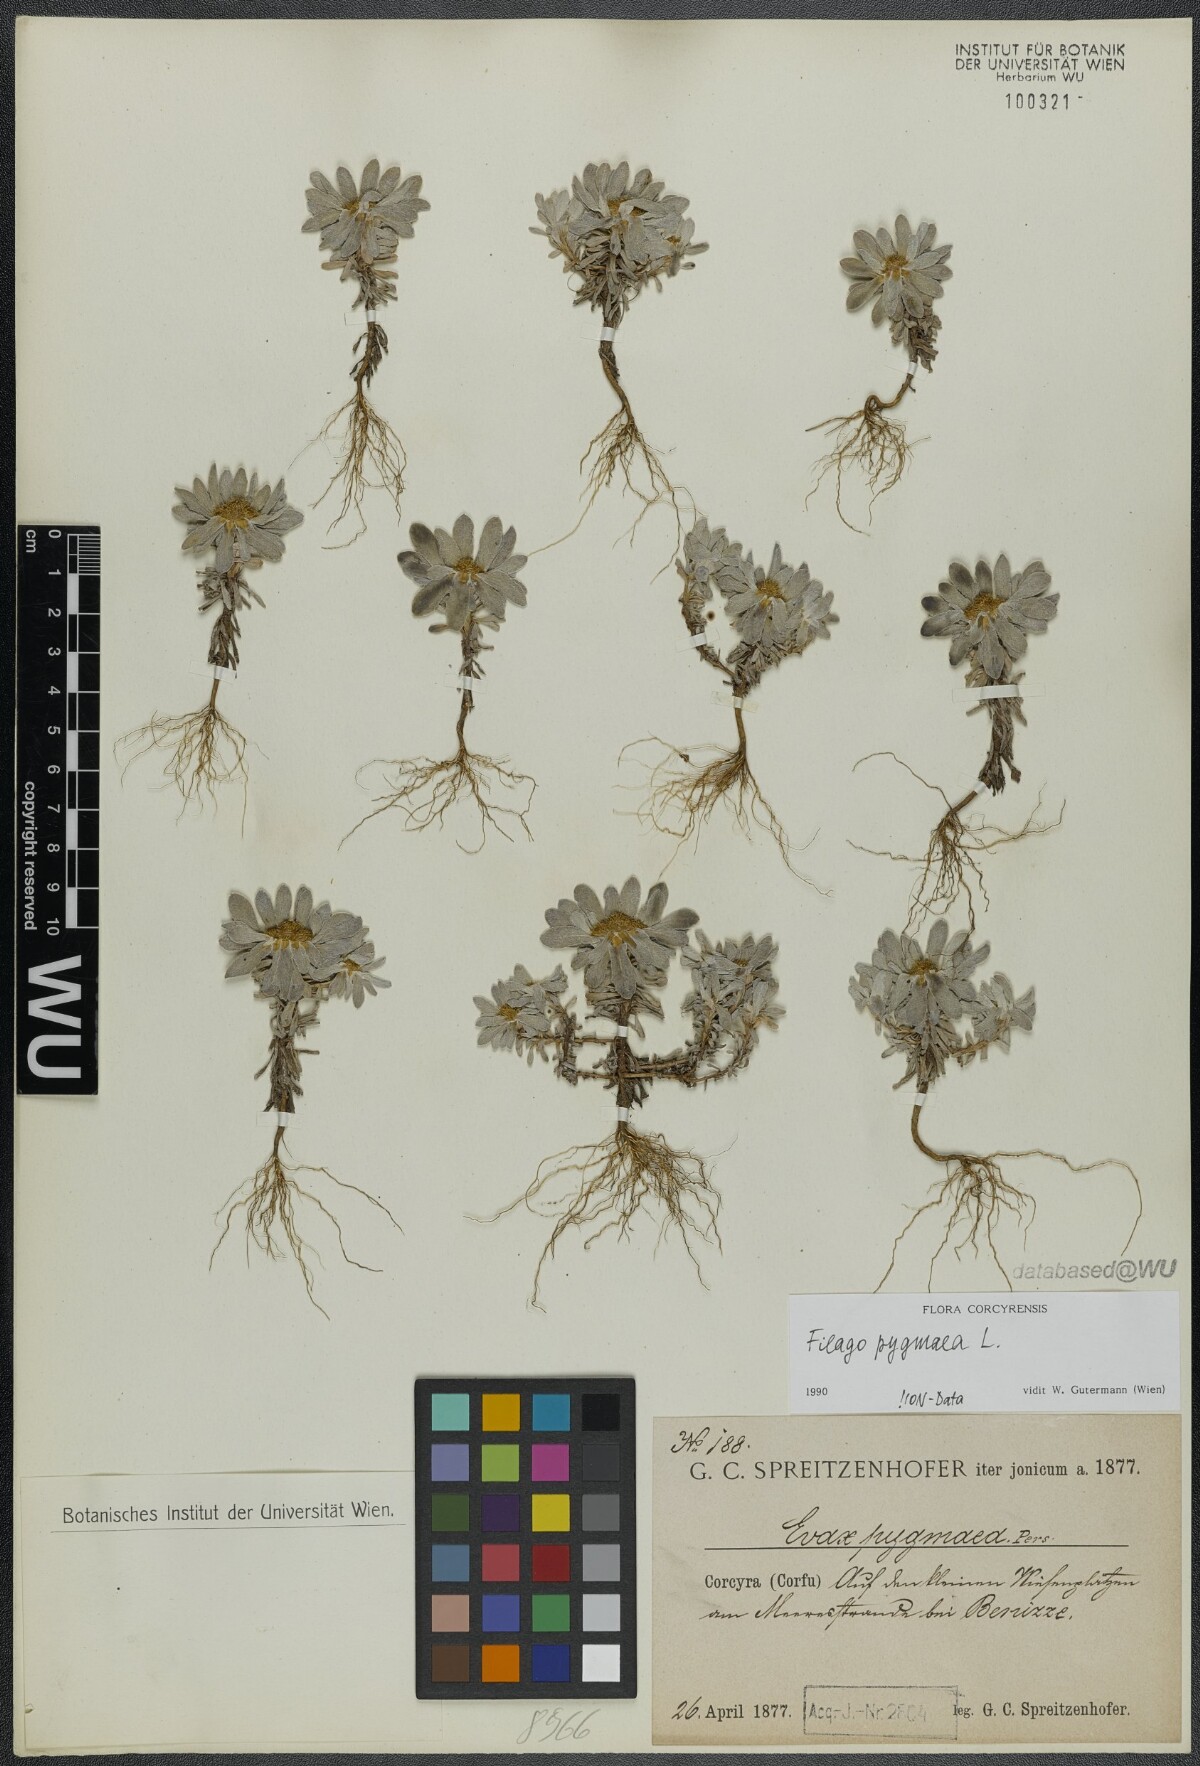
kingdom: Plantae
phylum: Tracheophyta
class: Magnoliopsida
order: Asterales
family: Asteraceae
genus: Filago
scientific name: Filago pygmaea
